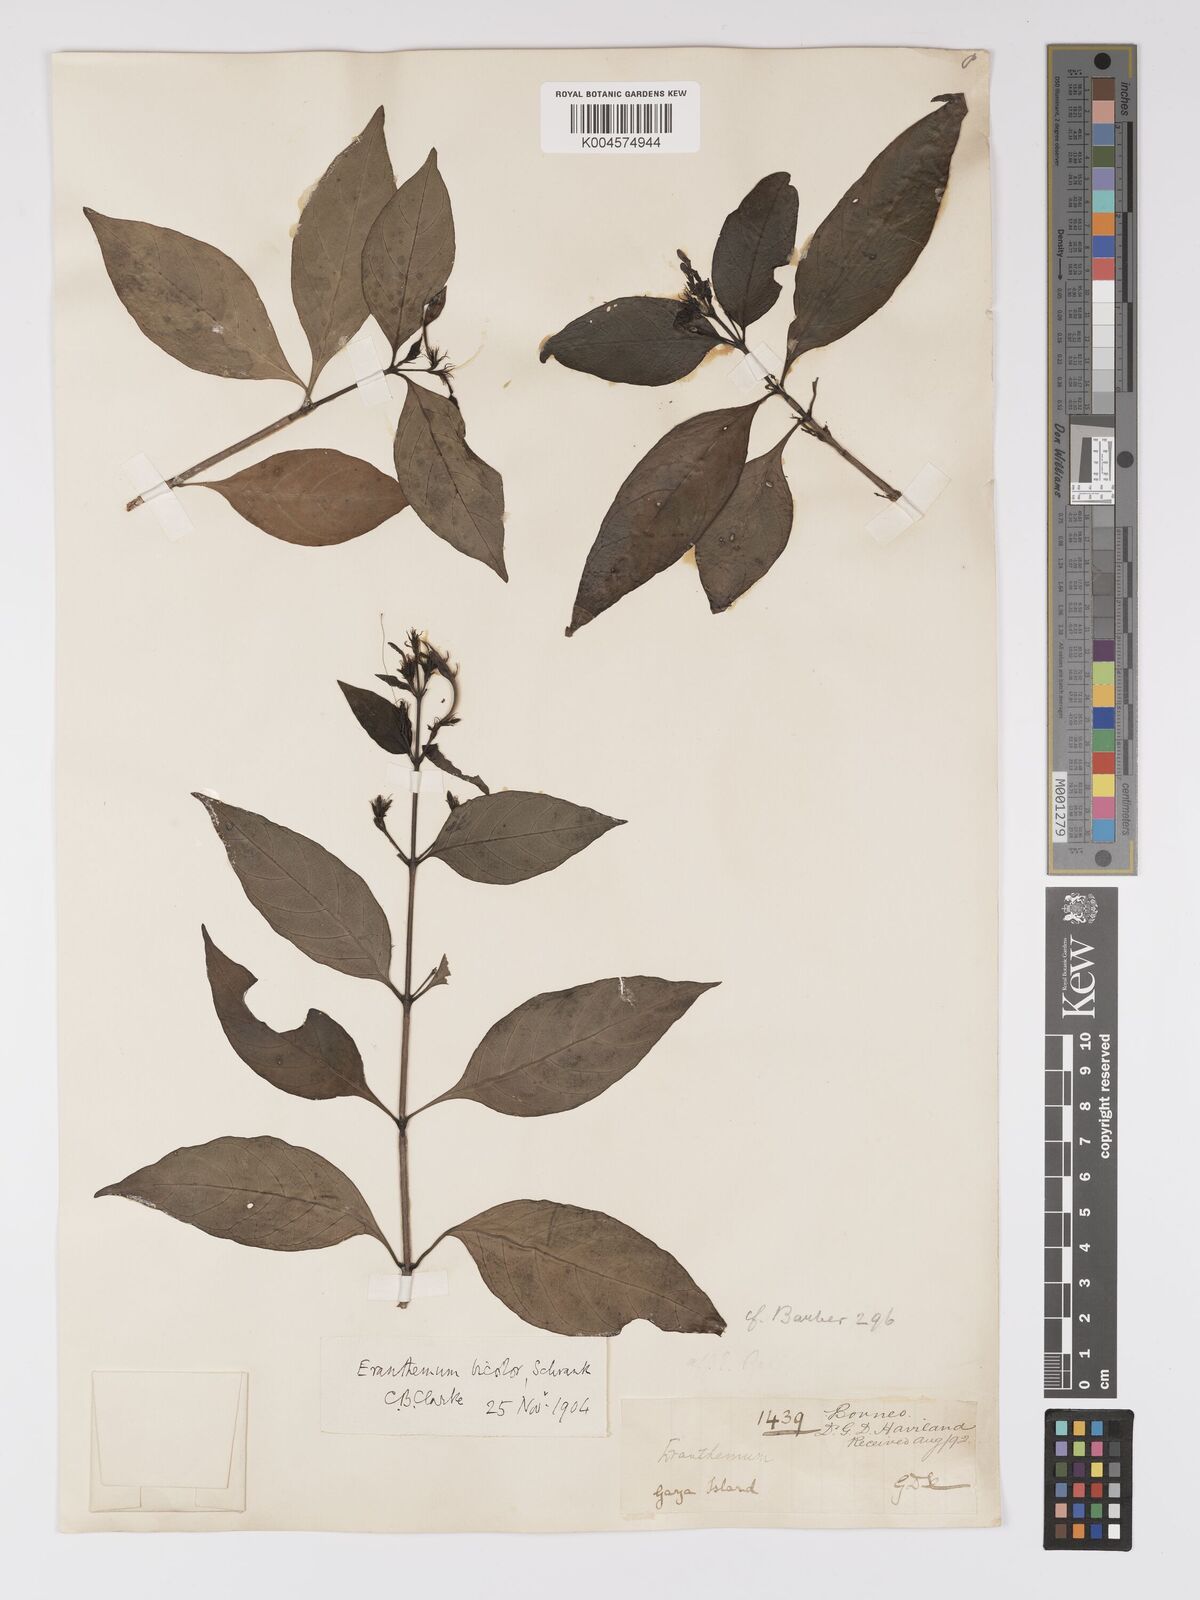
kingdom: Plantae
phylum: Tracheophyta
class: Magnoliopsida
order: Lamiales
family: Acanthaceae
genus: Pseuderanthemum
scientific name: Pseuderanthemum
